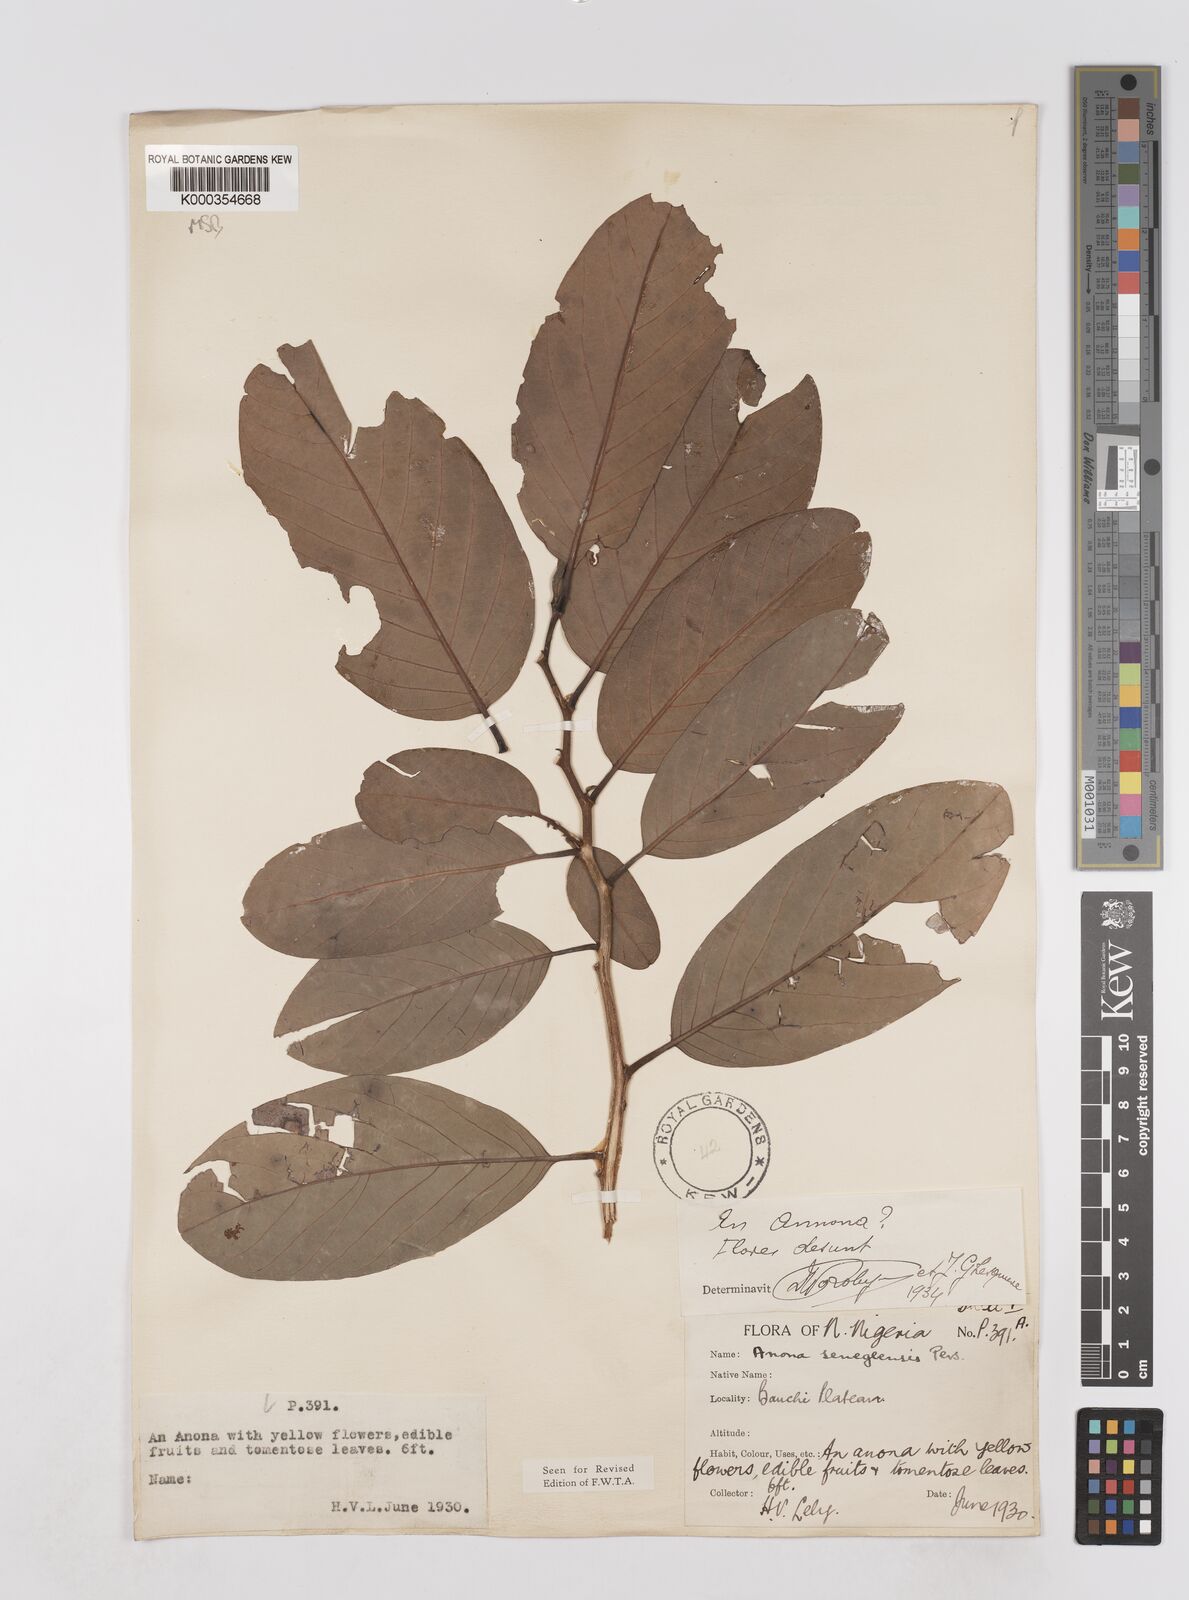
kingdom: Plantae
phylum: Tracheophyta
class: Magnoliopsida
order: Magnoliales
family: Annonaceae
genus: Annona
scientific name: Annona senegalensis
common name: Wild custard-apple
